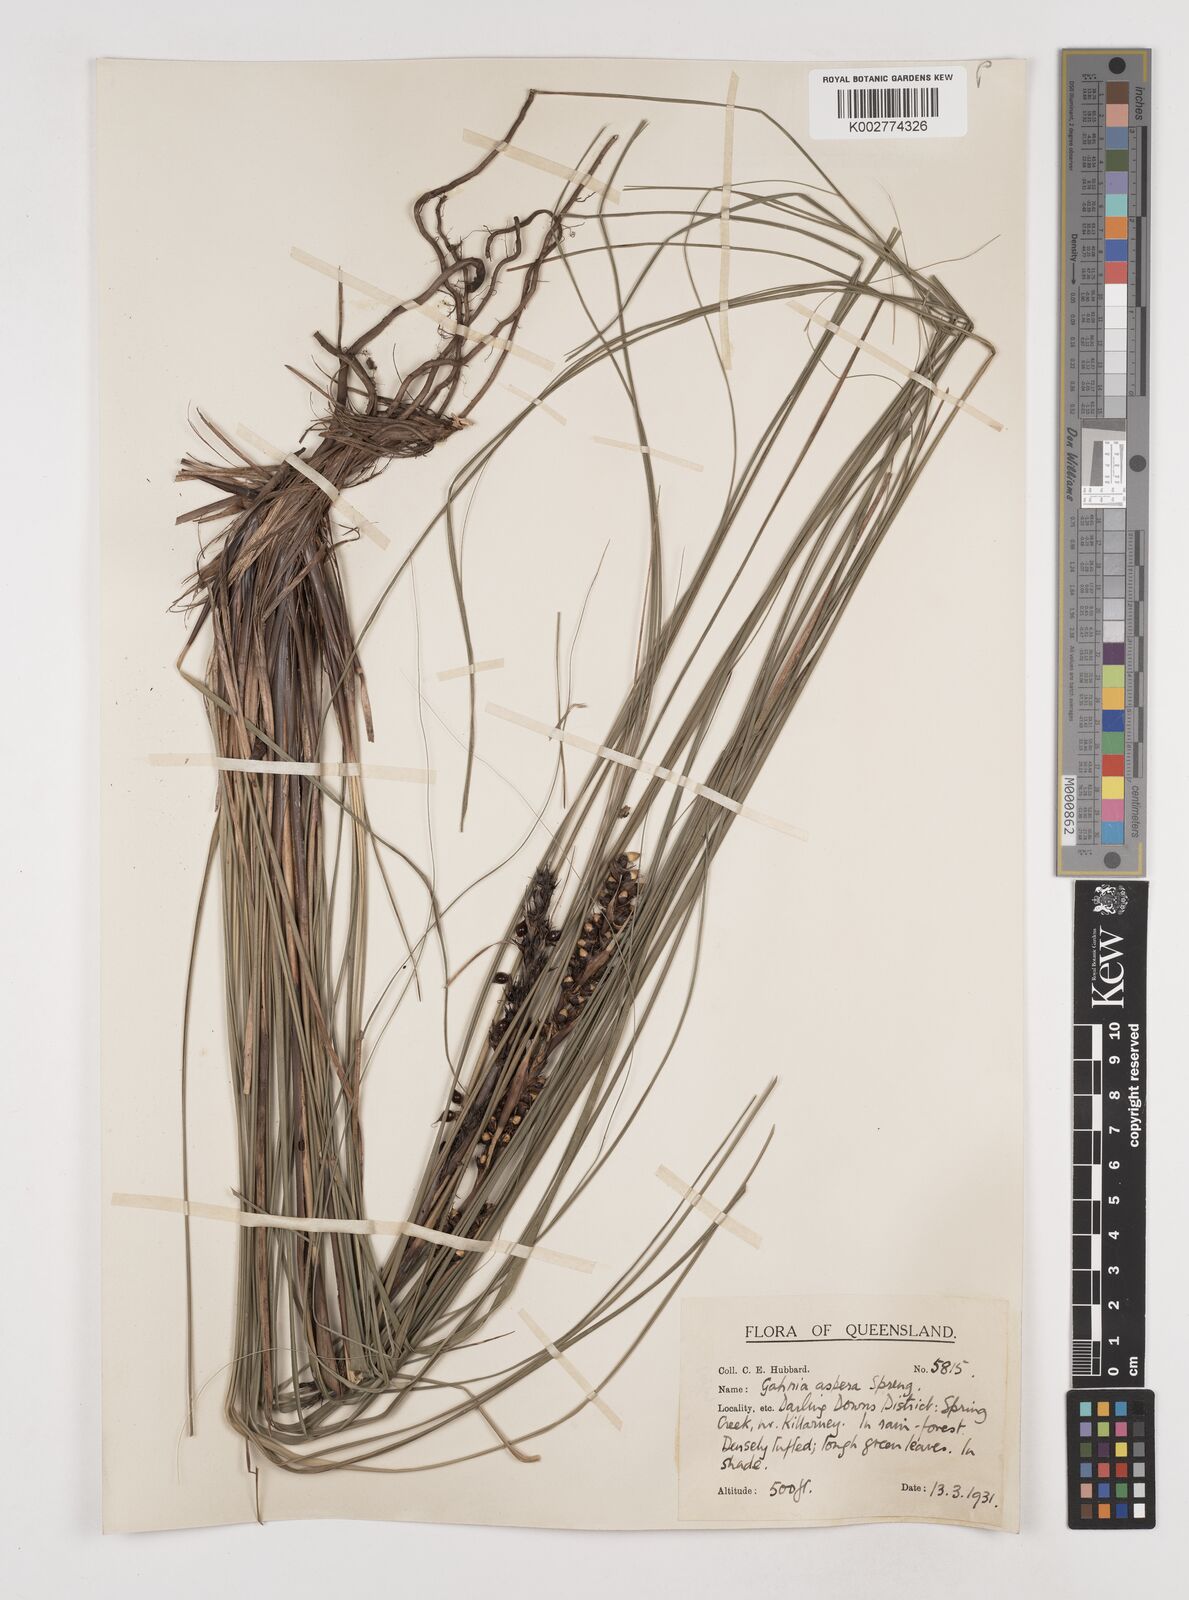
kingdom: Plantae
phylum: Tracheophyta
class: Liliopsida
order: Poales
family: Cyperaceae
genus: Gahnia
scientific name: Gahnia aspera
